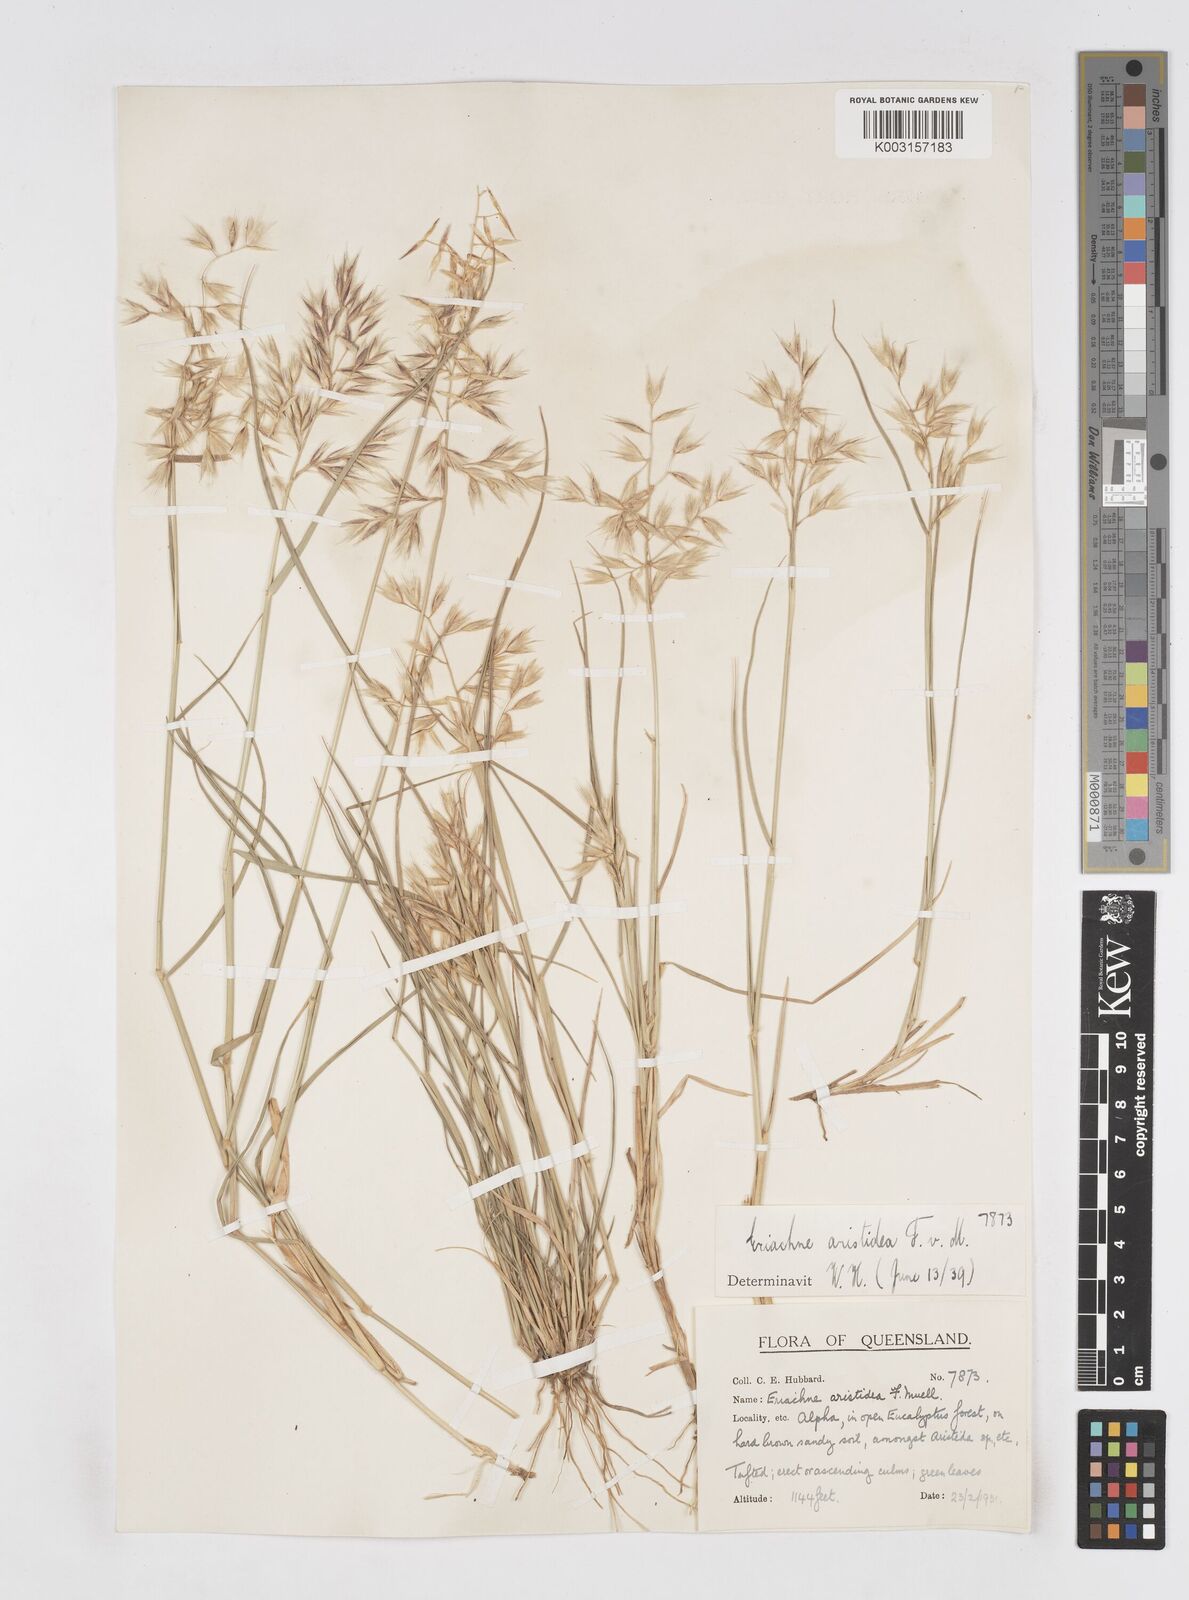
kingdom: Plantae
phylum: Tracheophyta
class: Liliopsida
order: Poales
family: Poaceae
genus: Eriachne
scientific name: Eriachne aristidea
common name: Three-awn wanderrie grass
